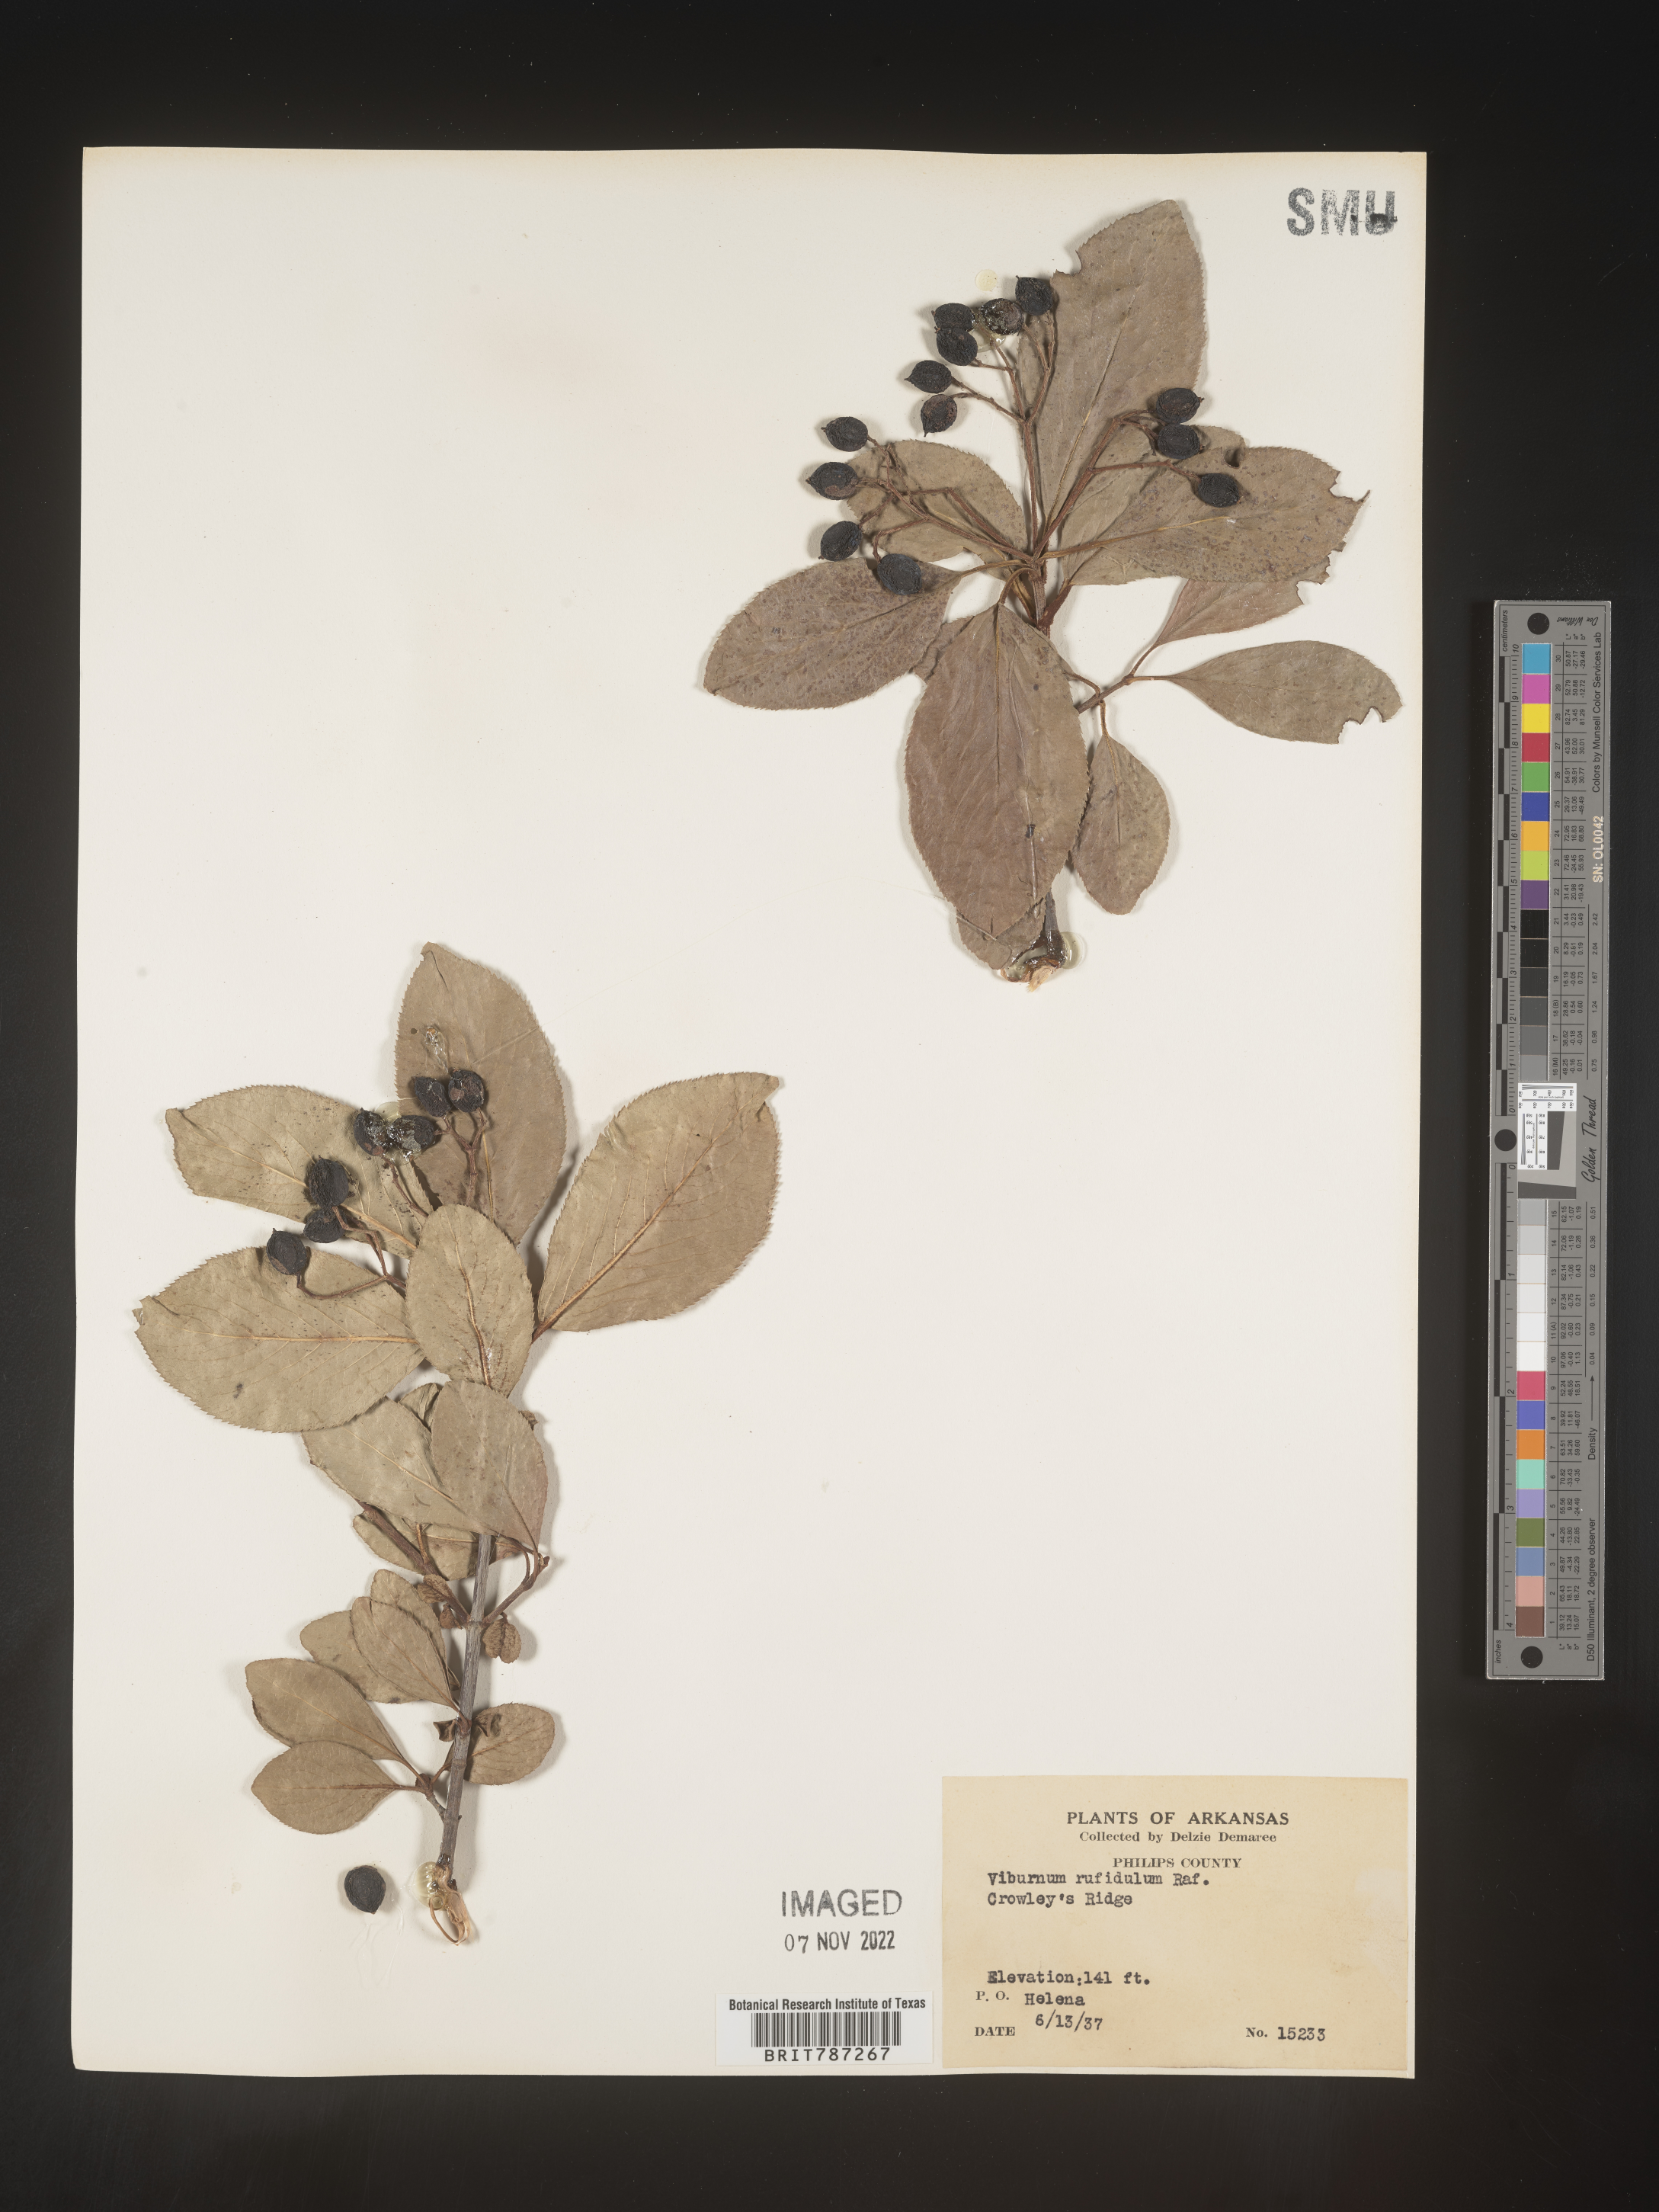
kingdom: Plantae
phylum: Tracheophyta
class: Magnoliopsida
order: Dipsacales
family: Viburnaceae
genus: Viburnum
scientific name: Viburnum rufidulum
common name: Blue haw
